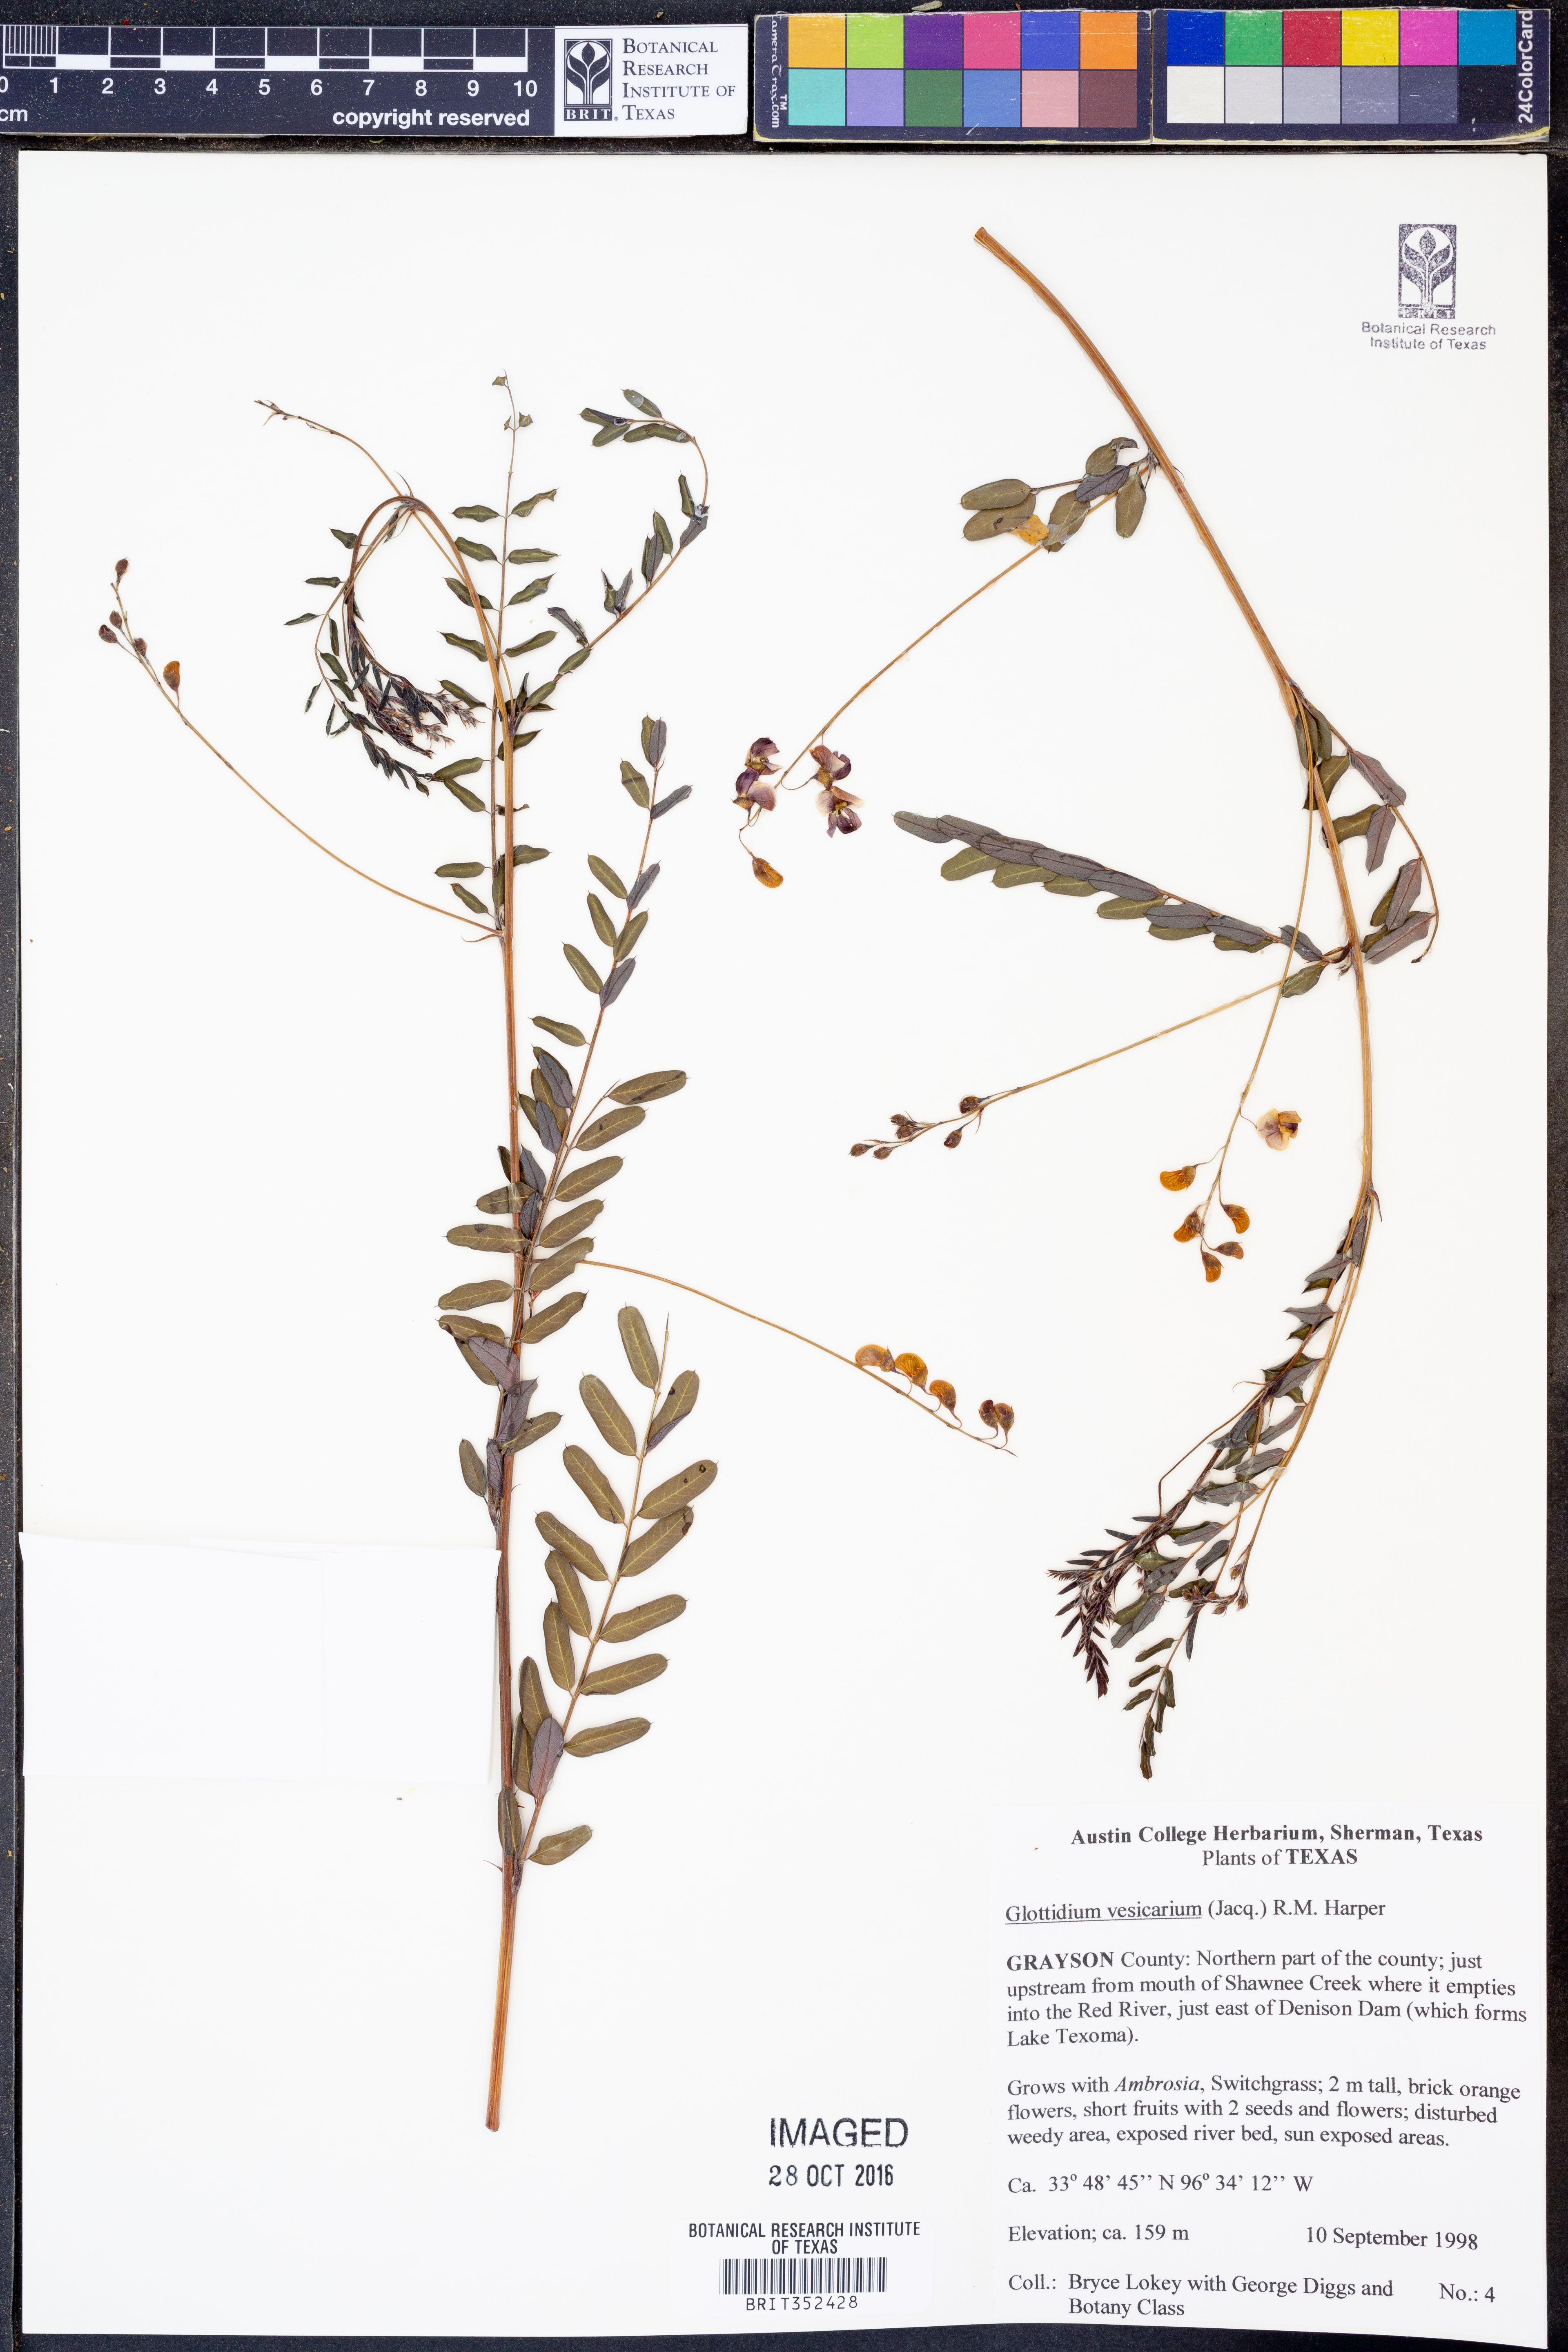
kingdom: Plantae
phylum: Tracheophyta
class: Magnoliopsida
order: Fabales
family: Fabaceae
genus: Sesbania
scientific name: Sesbania vesicaria
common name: Bagpod
